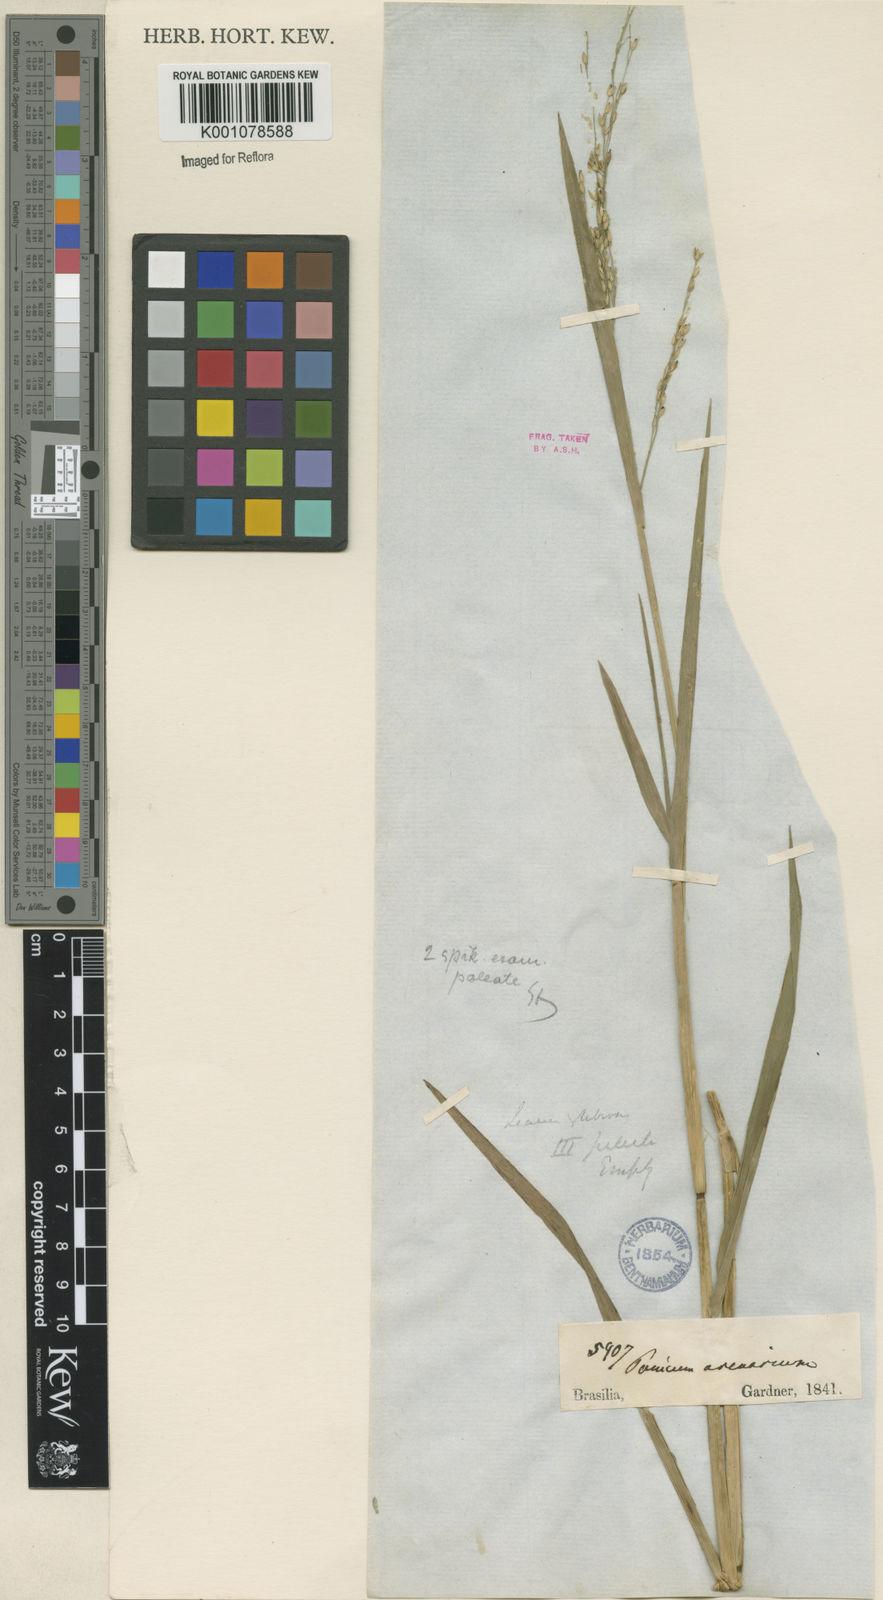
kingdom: Plantae
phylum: Tracheophyta
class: Liliopsida
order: Poales
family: Poaceae
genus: Panicum
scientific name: Panicum dichotomiflorum
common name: Autumn millet
